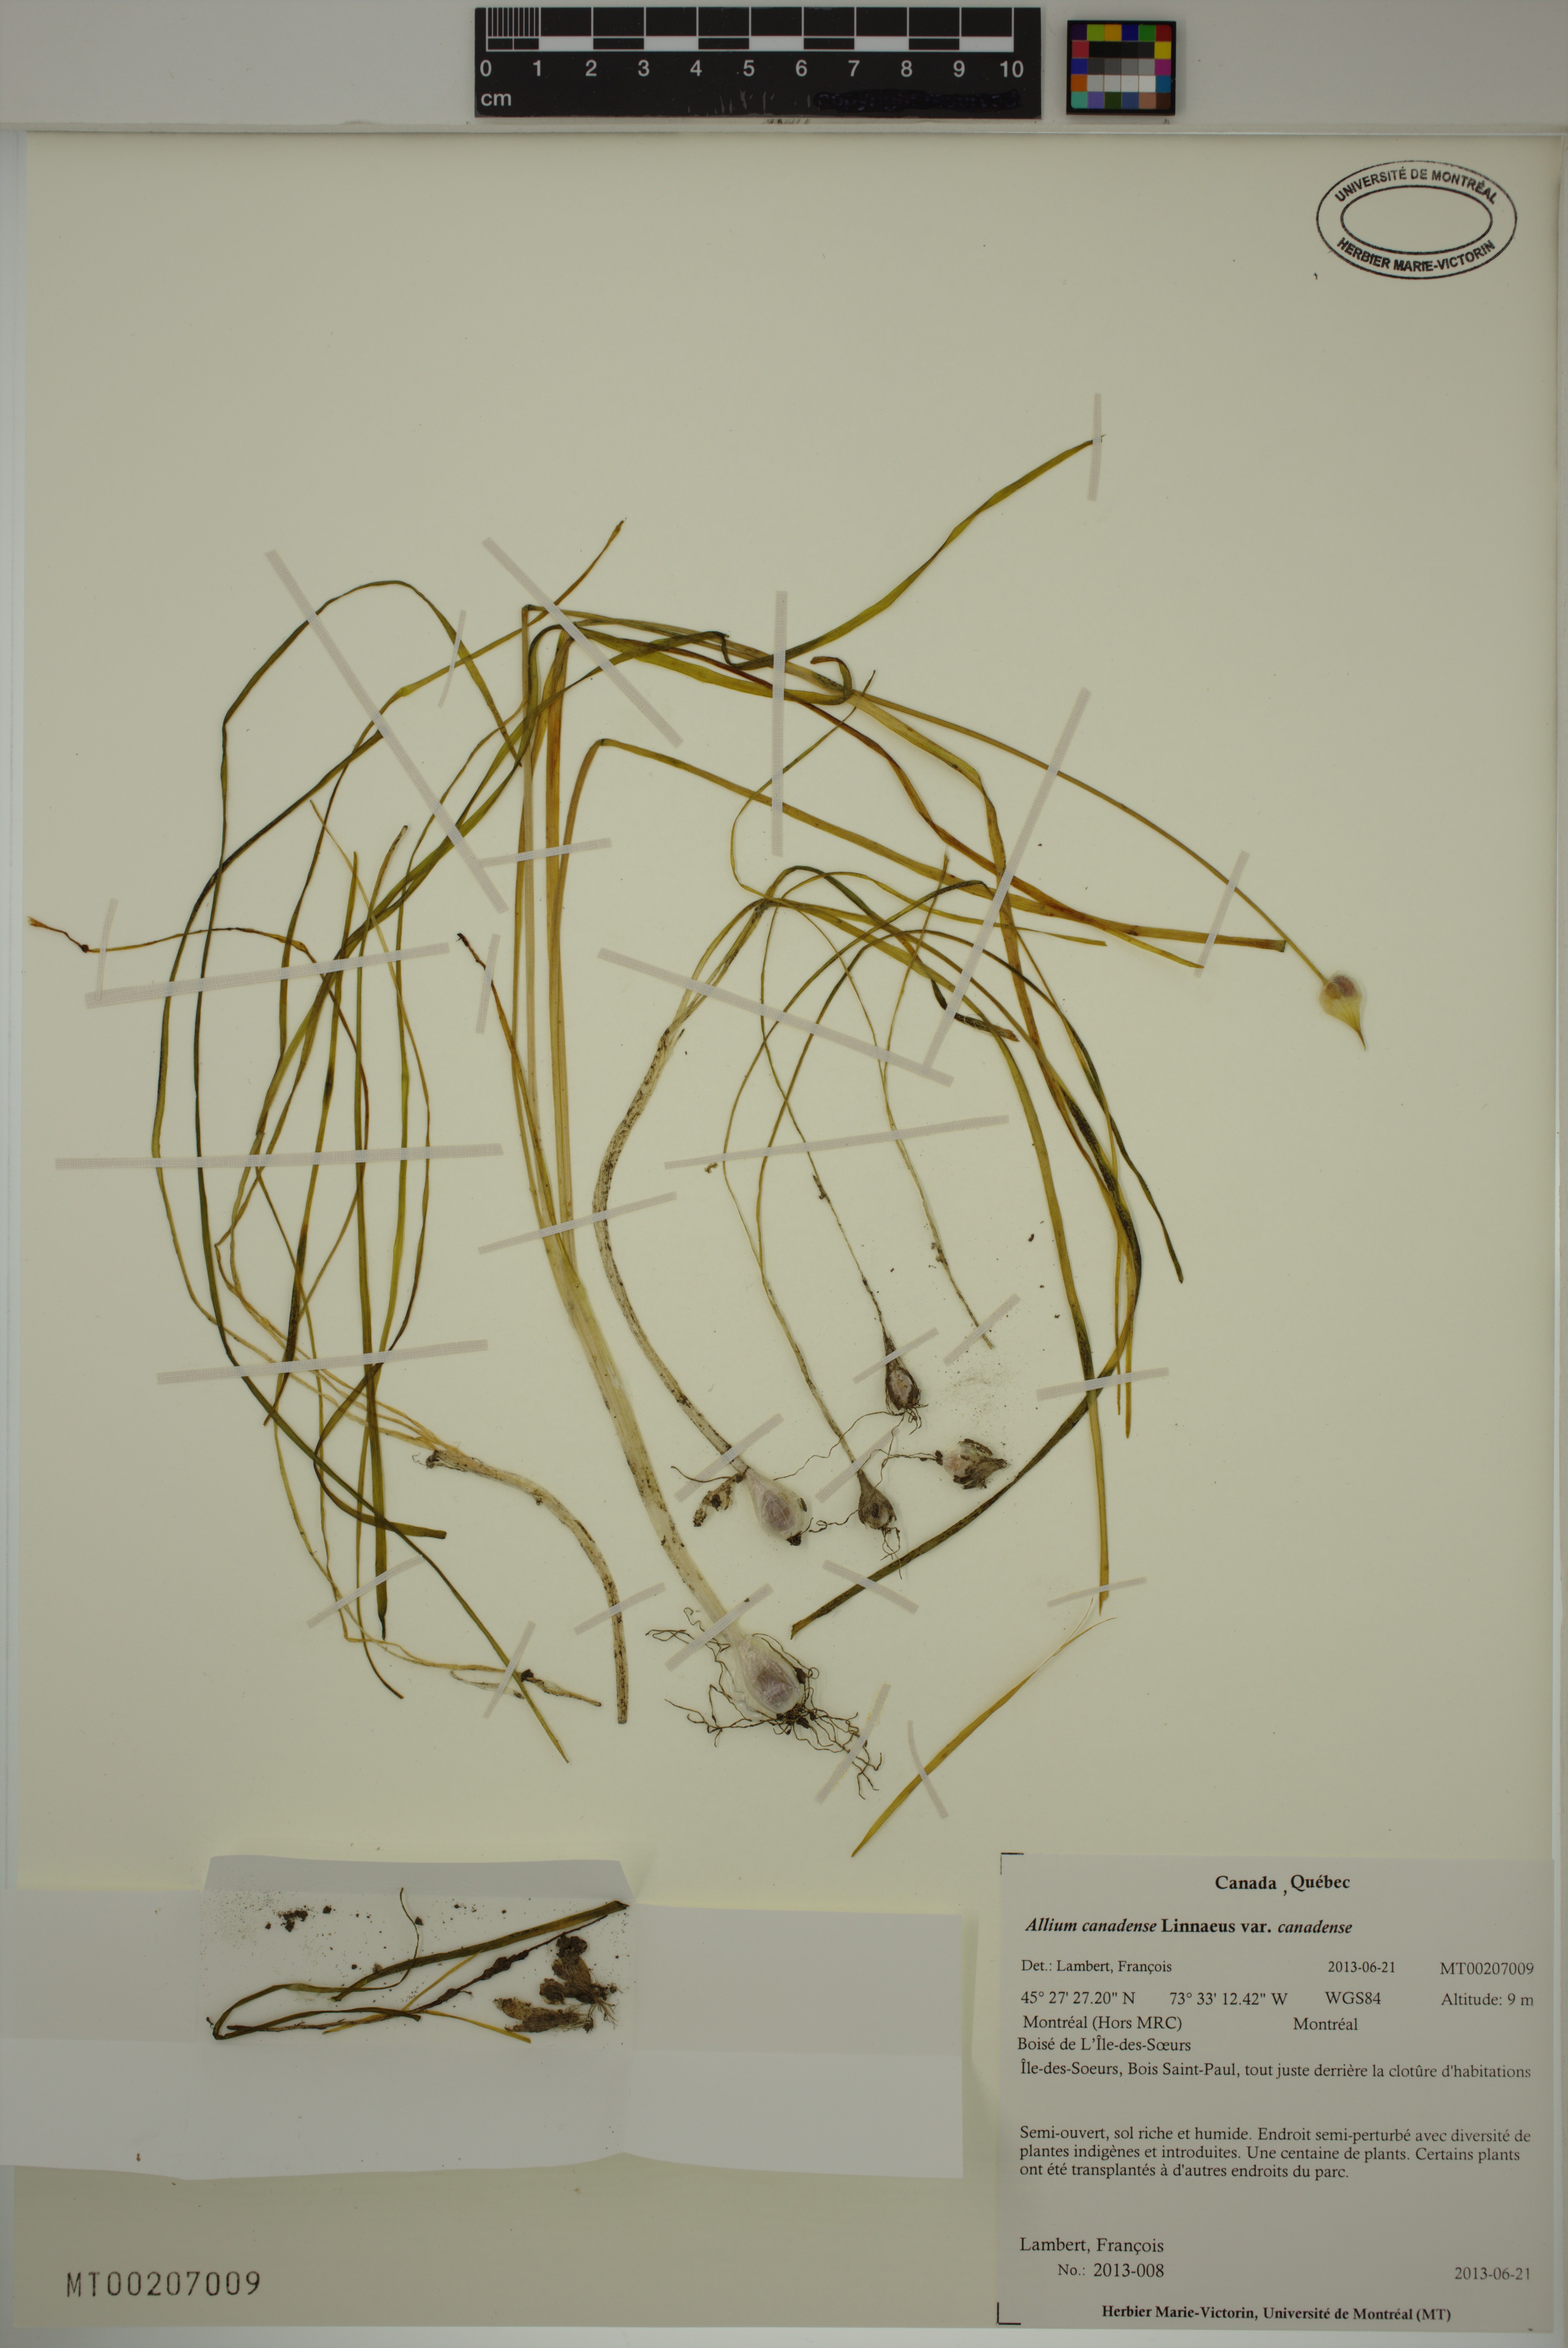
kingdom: Plantae
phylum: Tracheophyta
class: Liliopsida
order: Asparagales
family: Amaryllidaceae
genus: Allium
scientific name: Allium canadense
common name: Meadow garlic
